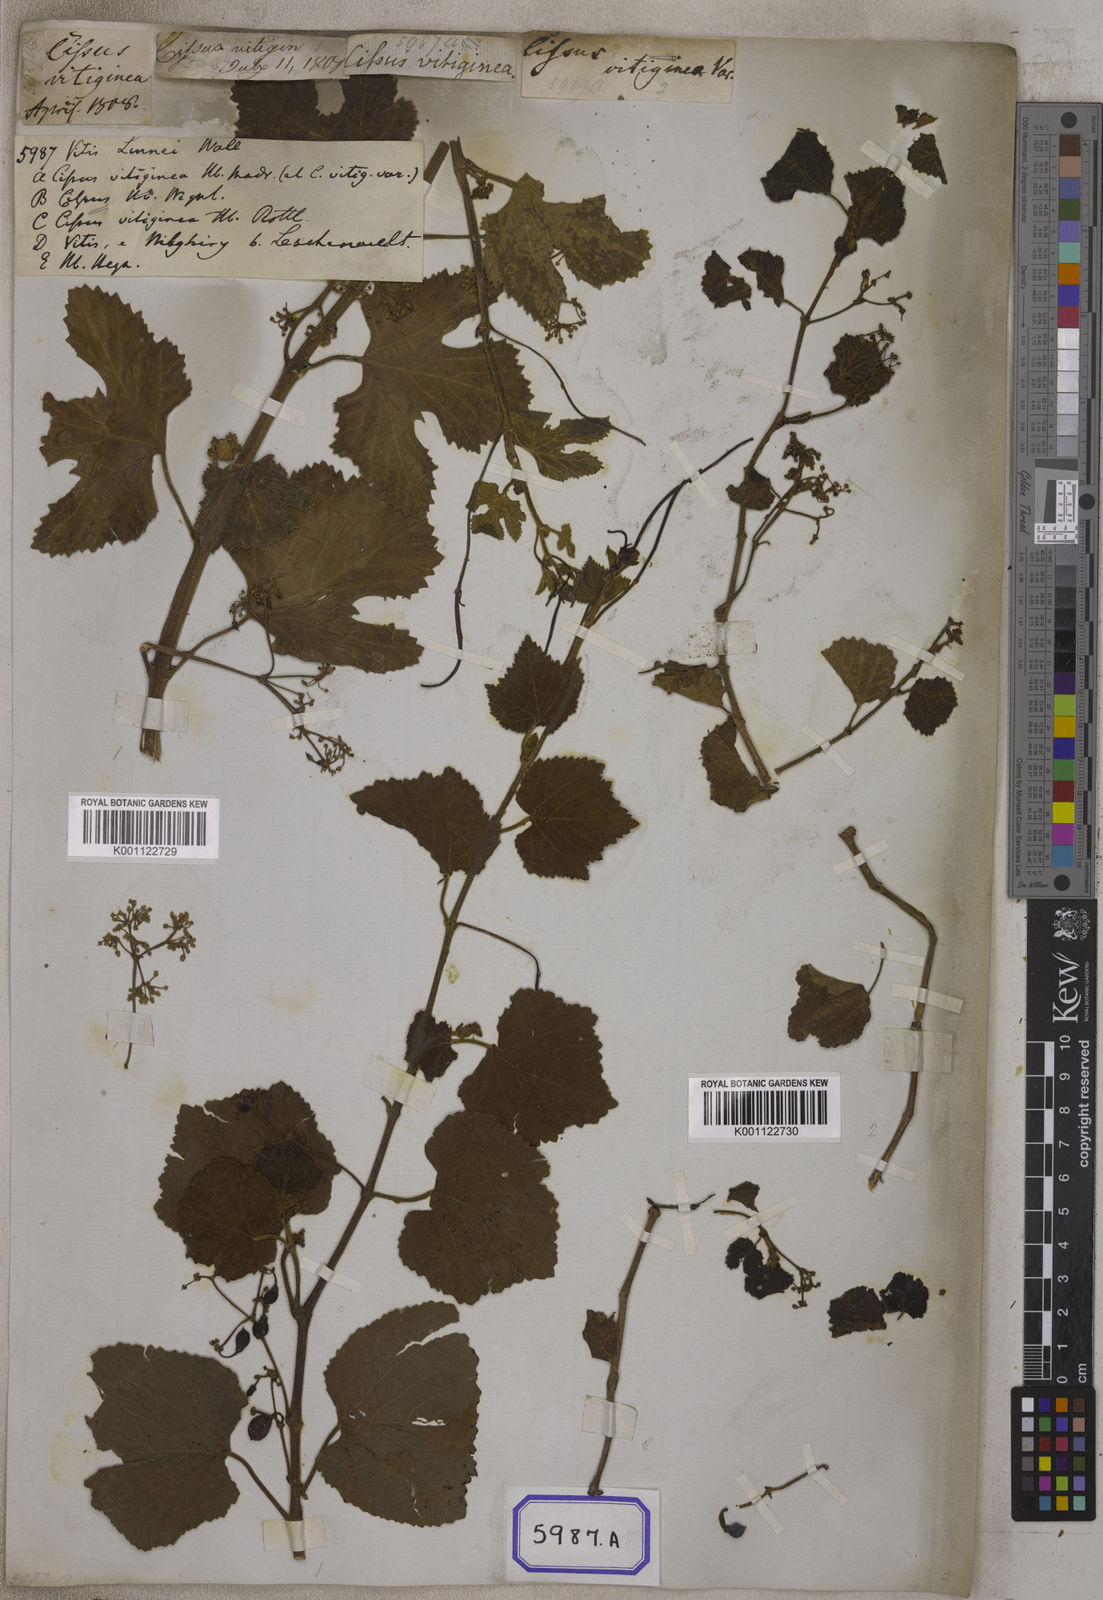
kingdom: Plantae
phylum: Tracheophyta
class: Magnoliopsida
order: Vitales
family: Vitaceae
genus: Vitis
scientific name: Vitis
